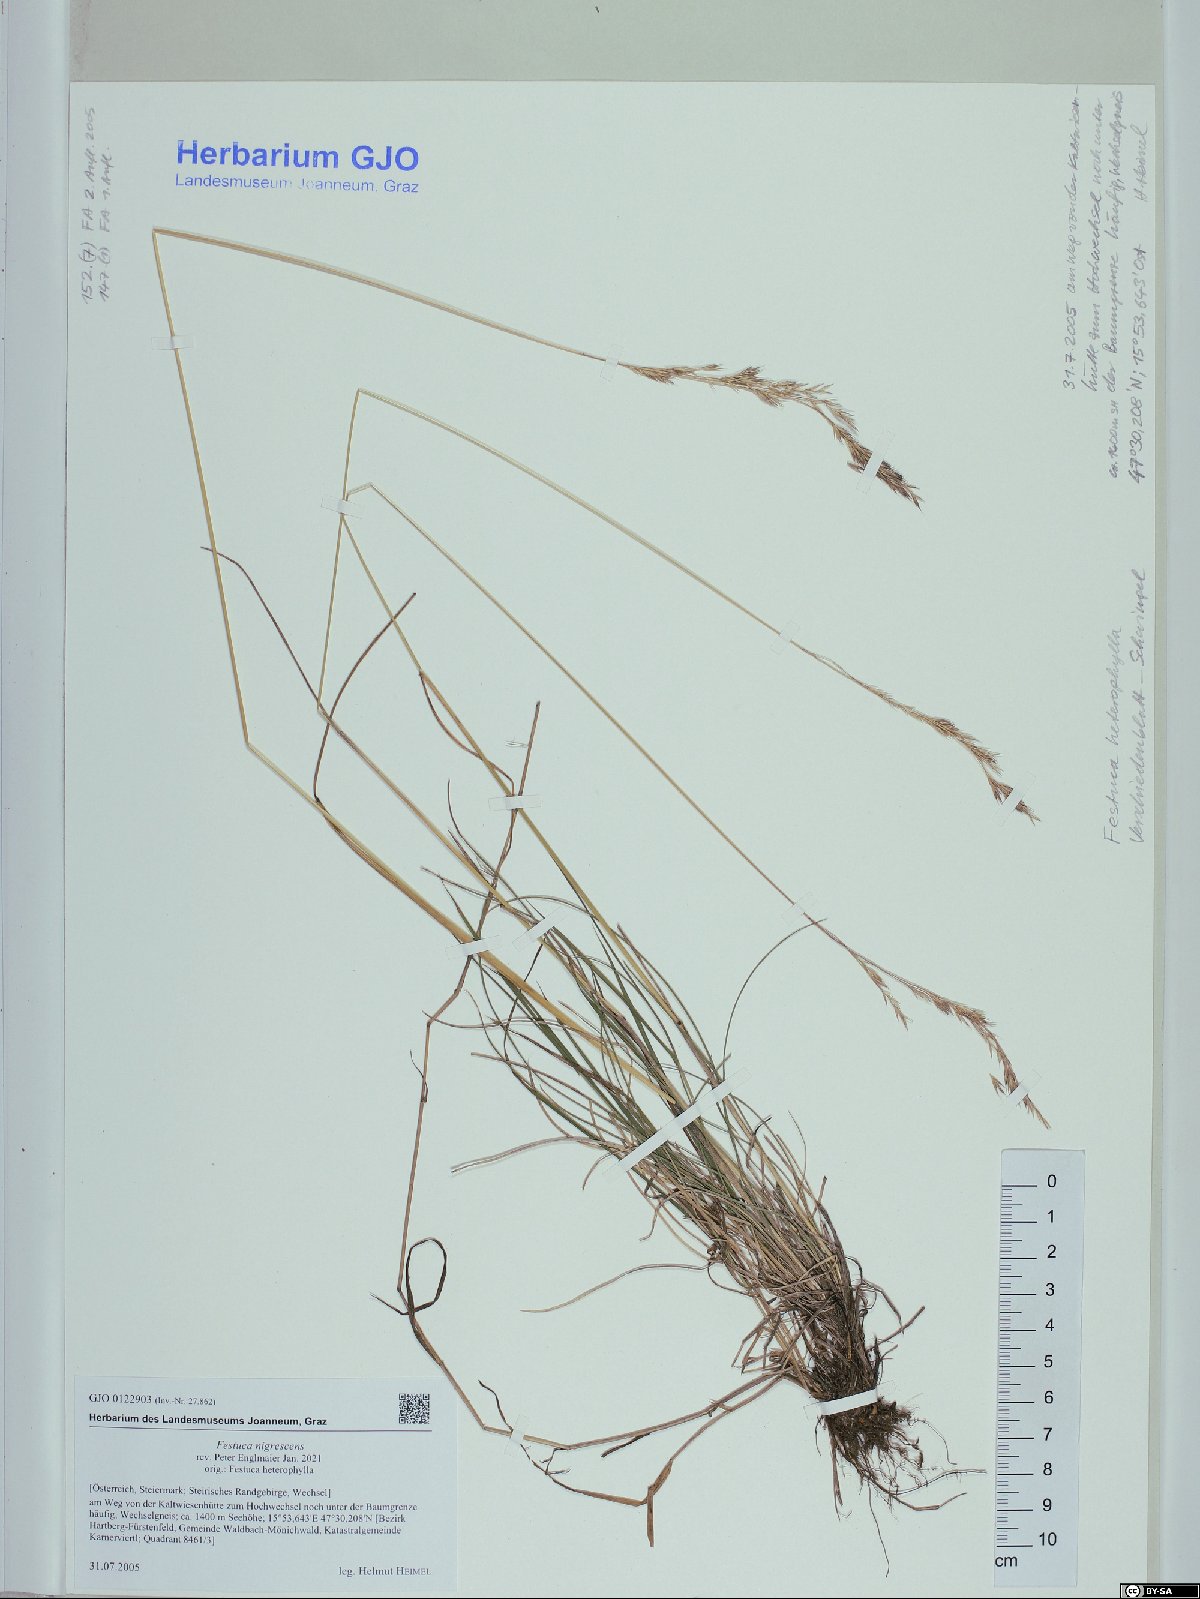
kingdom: Plantae
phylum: Tracheophyta
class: Liliopsida
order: Poales
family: Poaceae
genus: Festuca
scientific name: Festuca nigrescens
